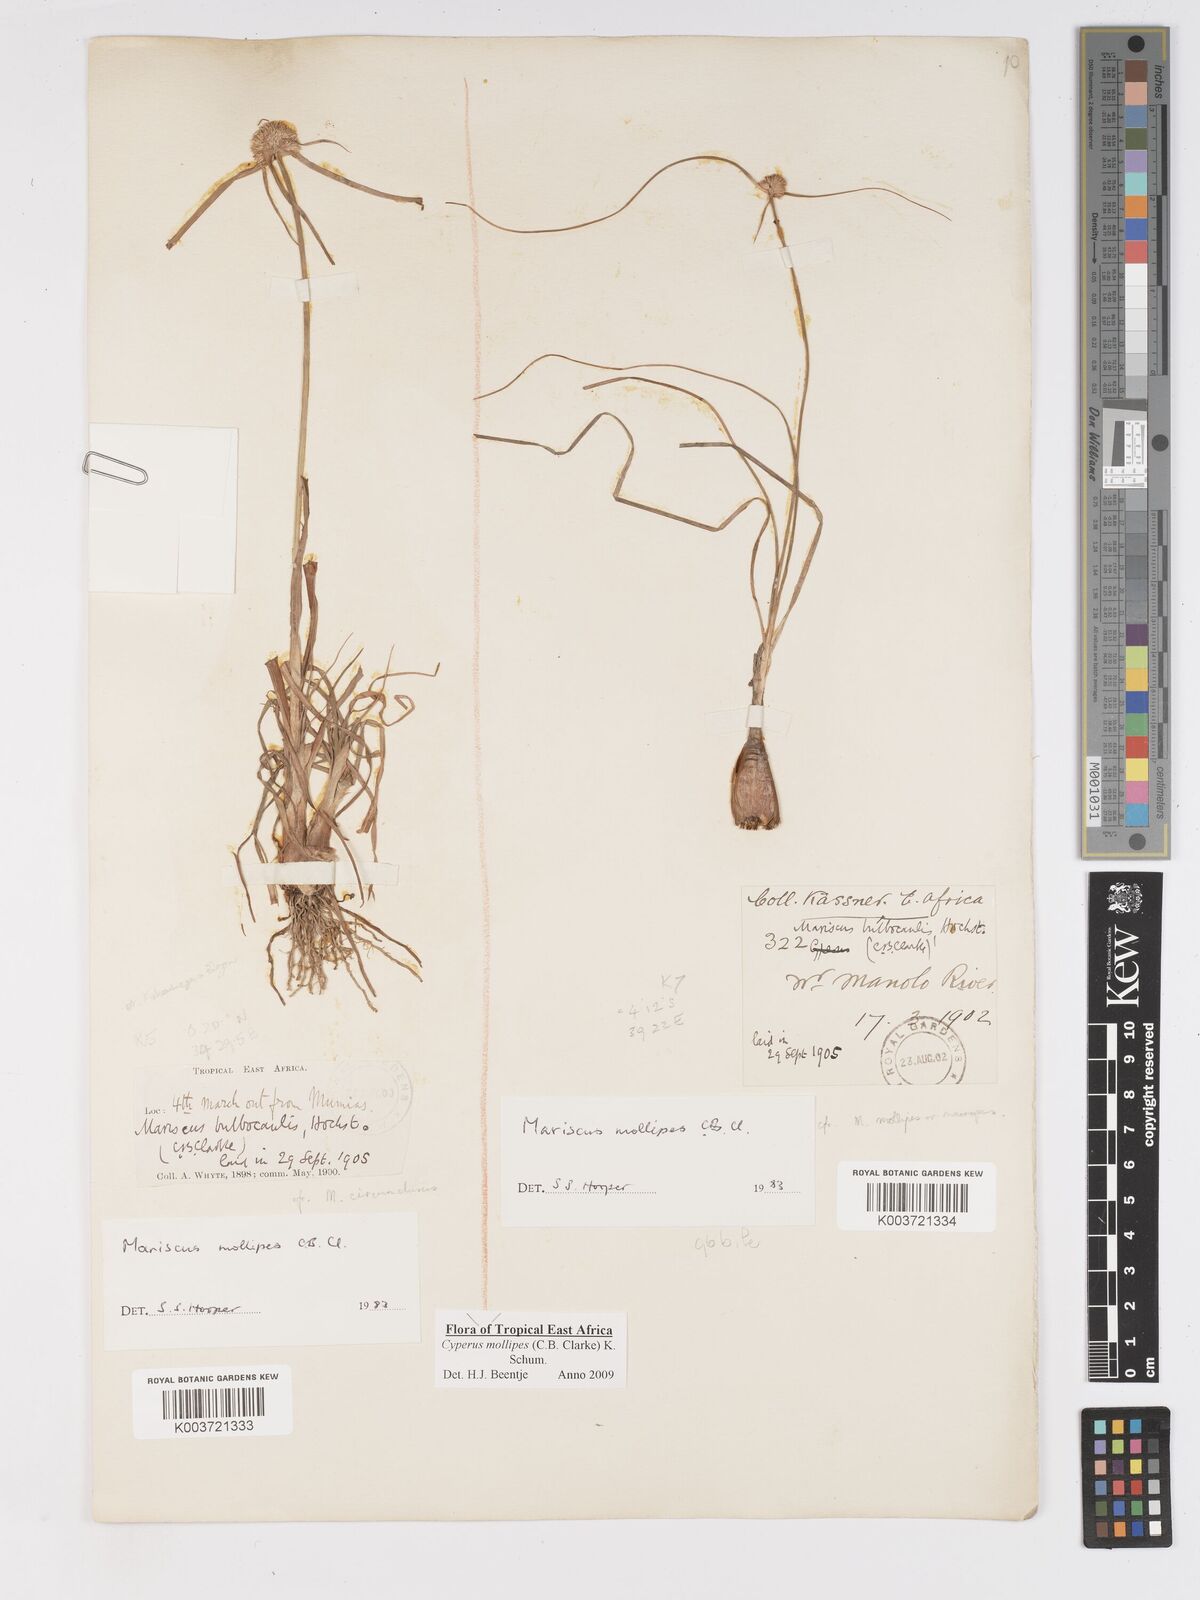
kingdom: Plantae
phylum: Tracheophyta
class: Liliopsida
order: Poales
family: Cyperaceae
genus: Cyperus
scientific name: Cyperus mollipes
